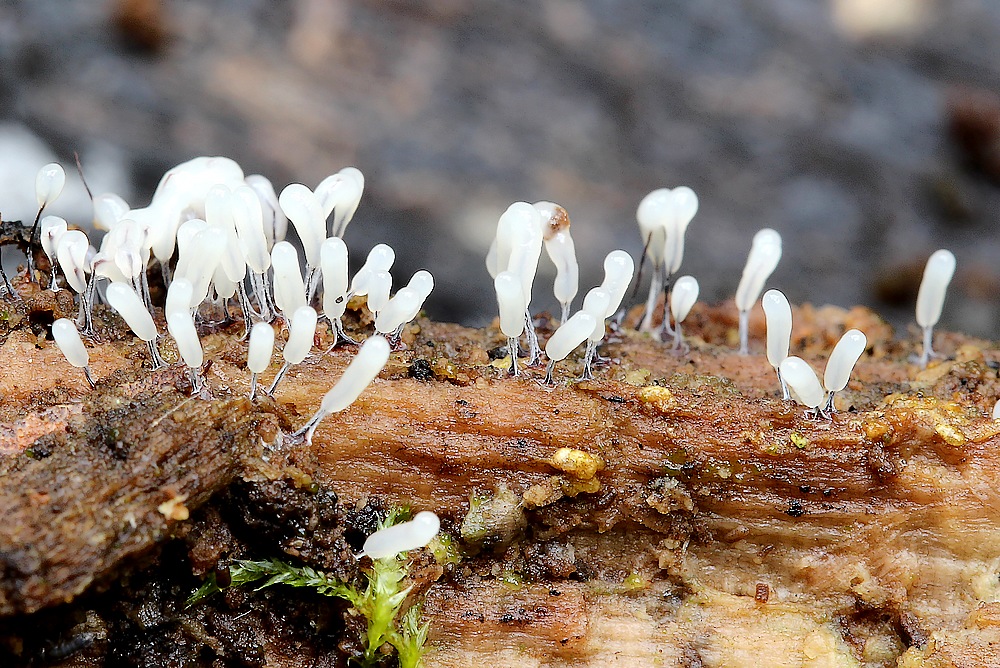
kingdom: Protozoa
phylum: Mycetozoa
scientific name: Mycetozoa
